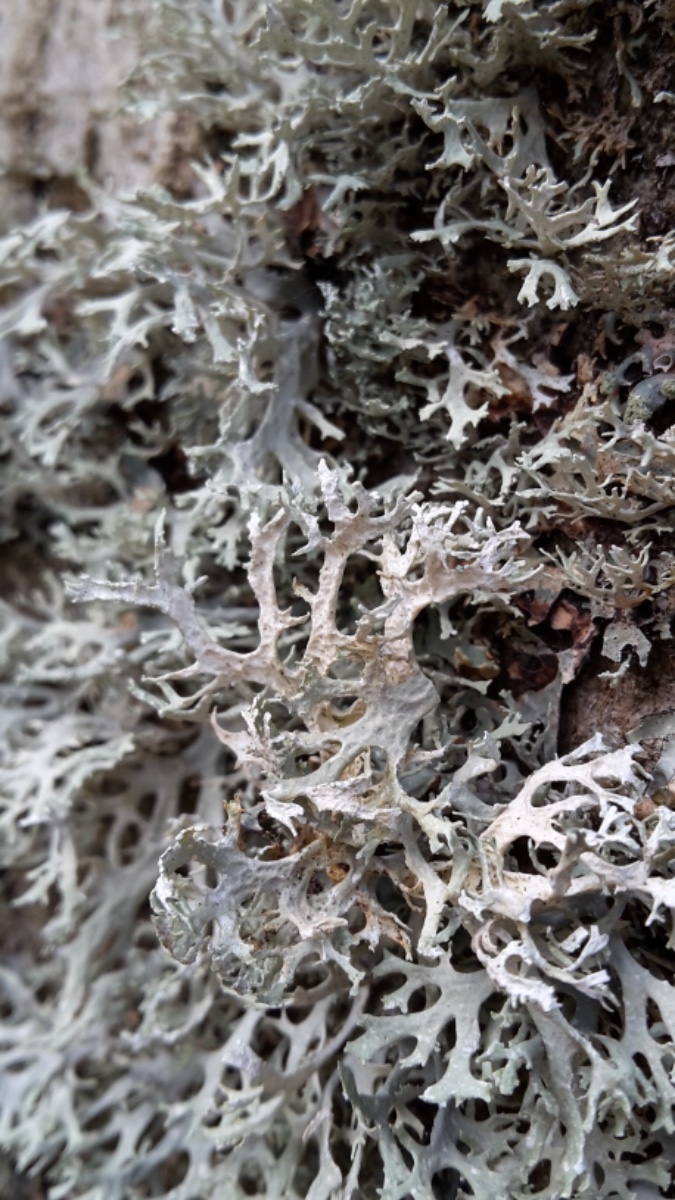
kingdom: Fungi
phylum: Ascomycota
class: Lecanoromycetes
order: Lecanorales
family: Parmeliaceae
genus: Evernia
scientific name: Evernia prunastri
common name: almindelig slåenlav
